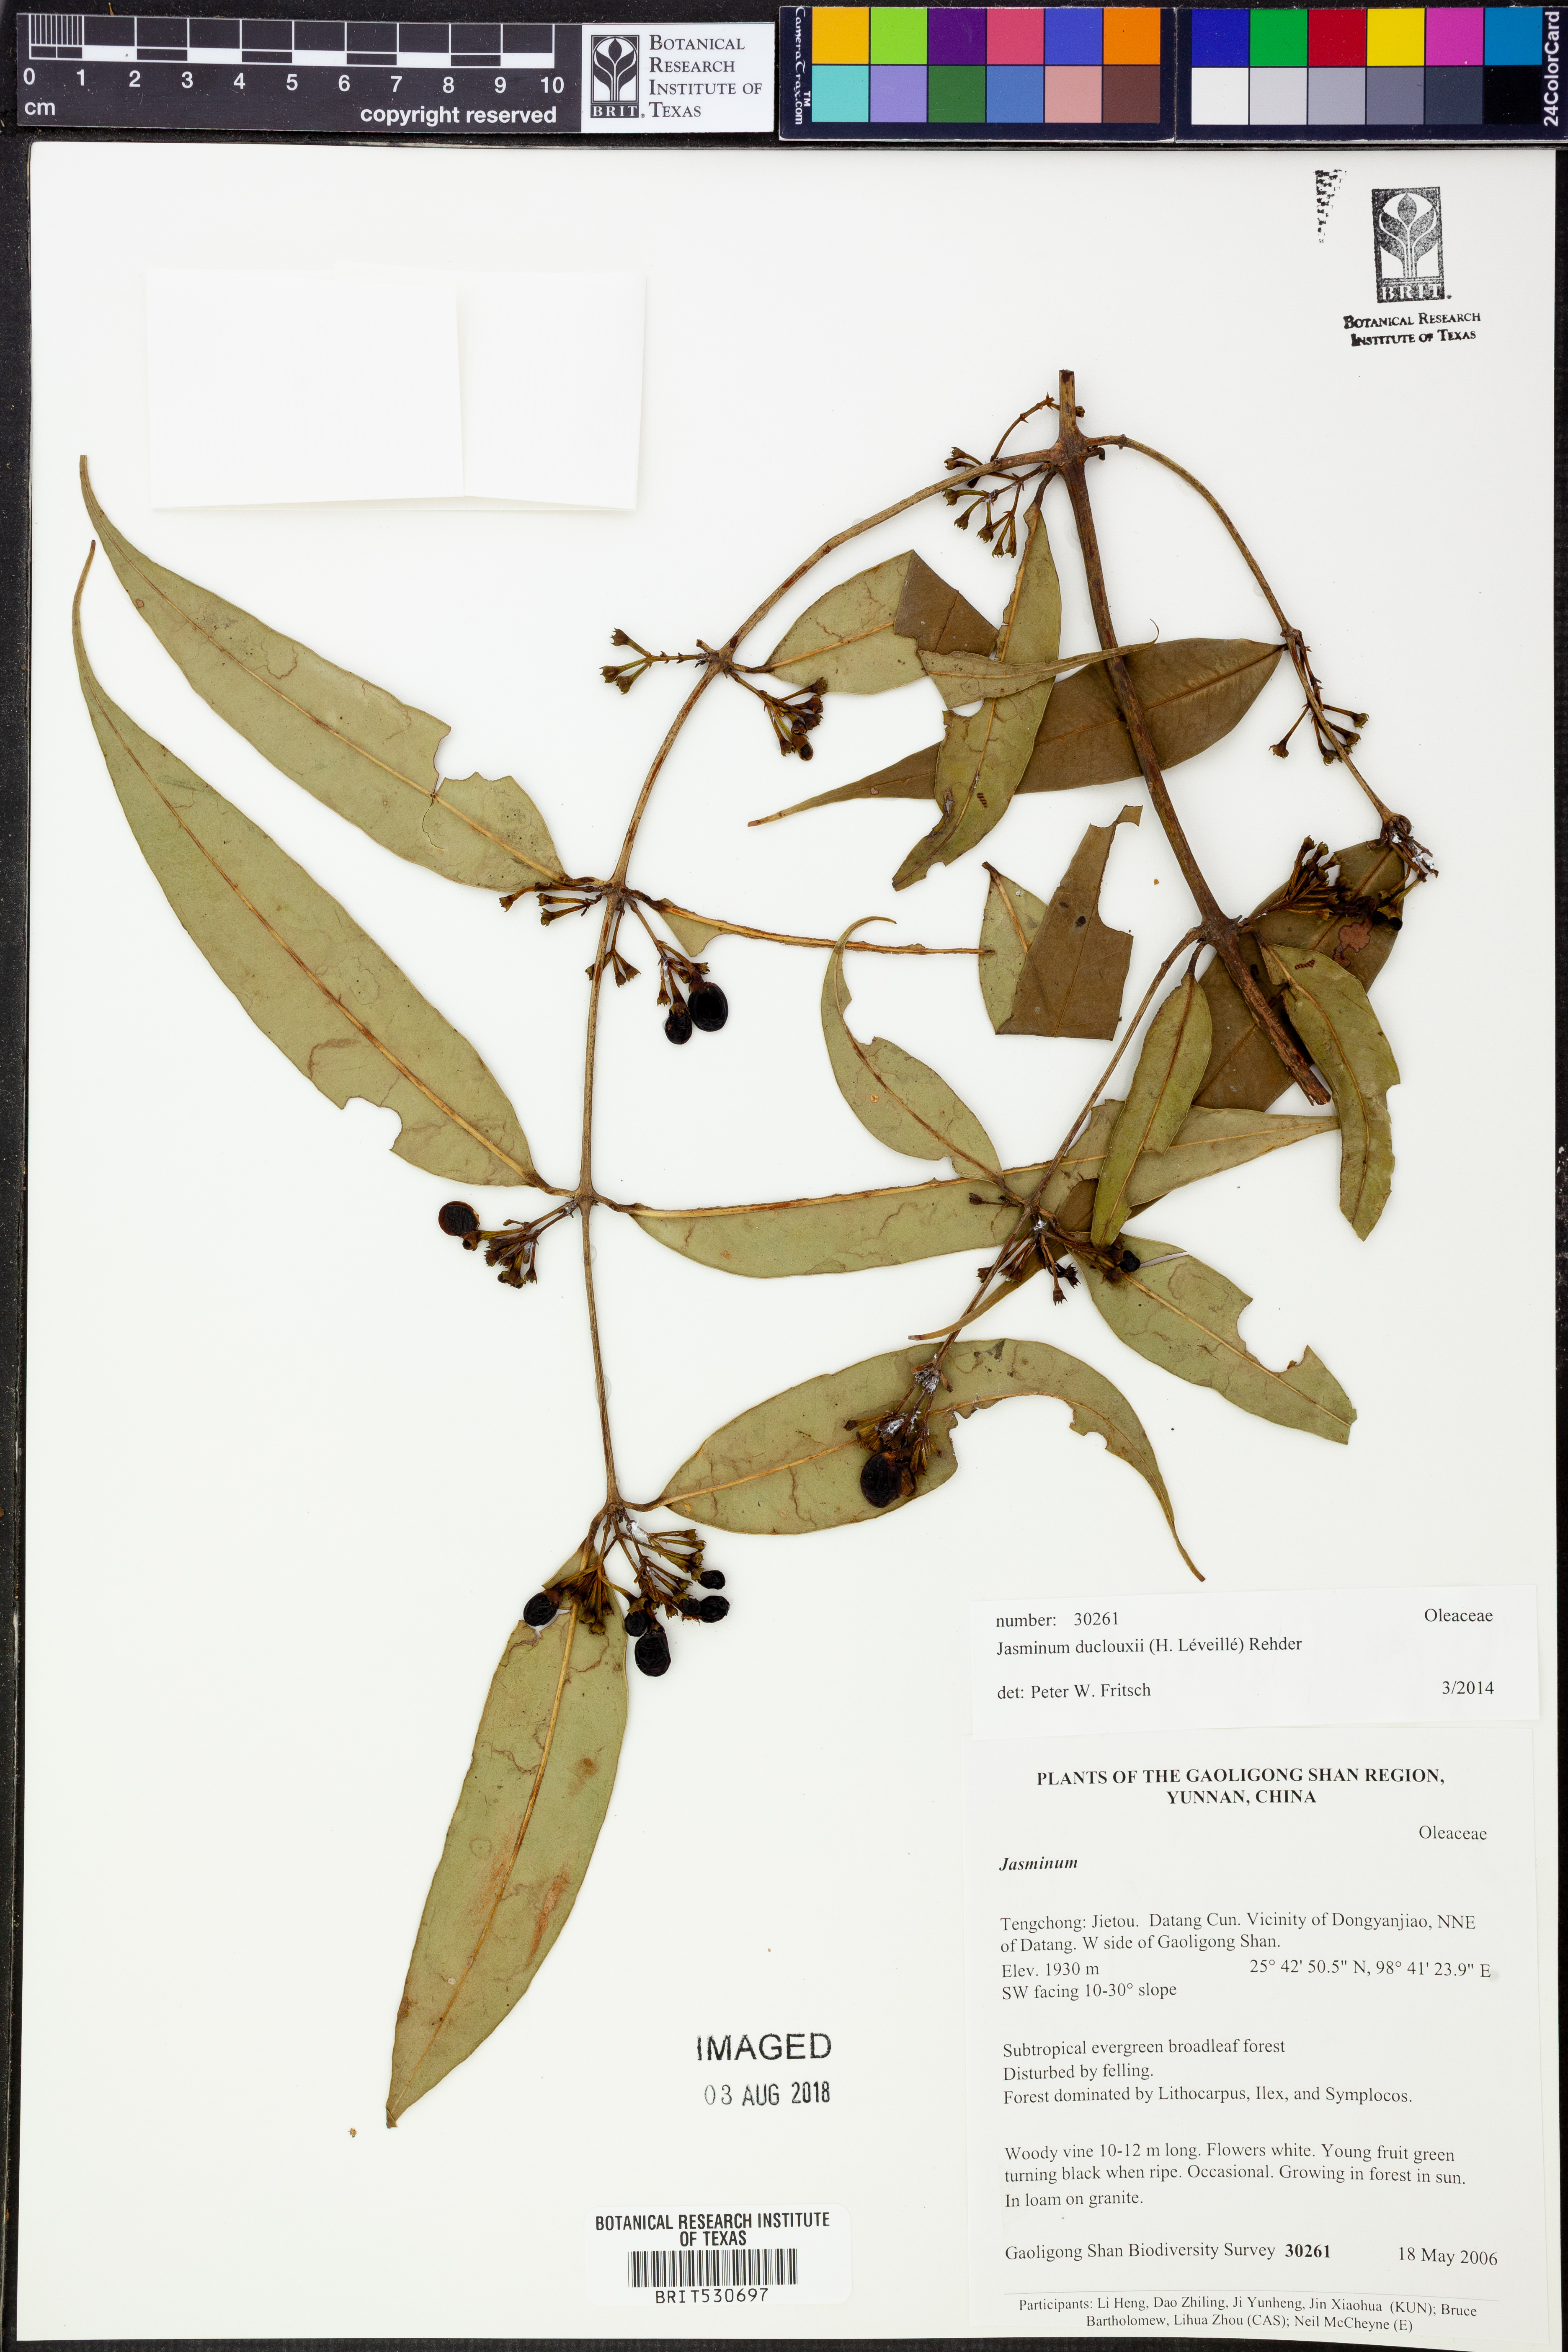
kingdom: Plantae
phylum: Tracheophyta
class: Magnoliopsida
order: Lamiales
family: Oleaceae
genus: Jasminum
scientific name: Jasminum duclouxii
